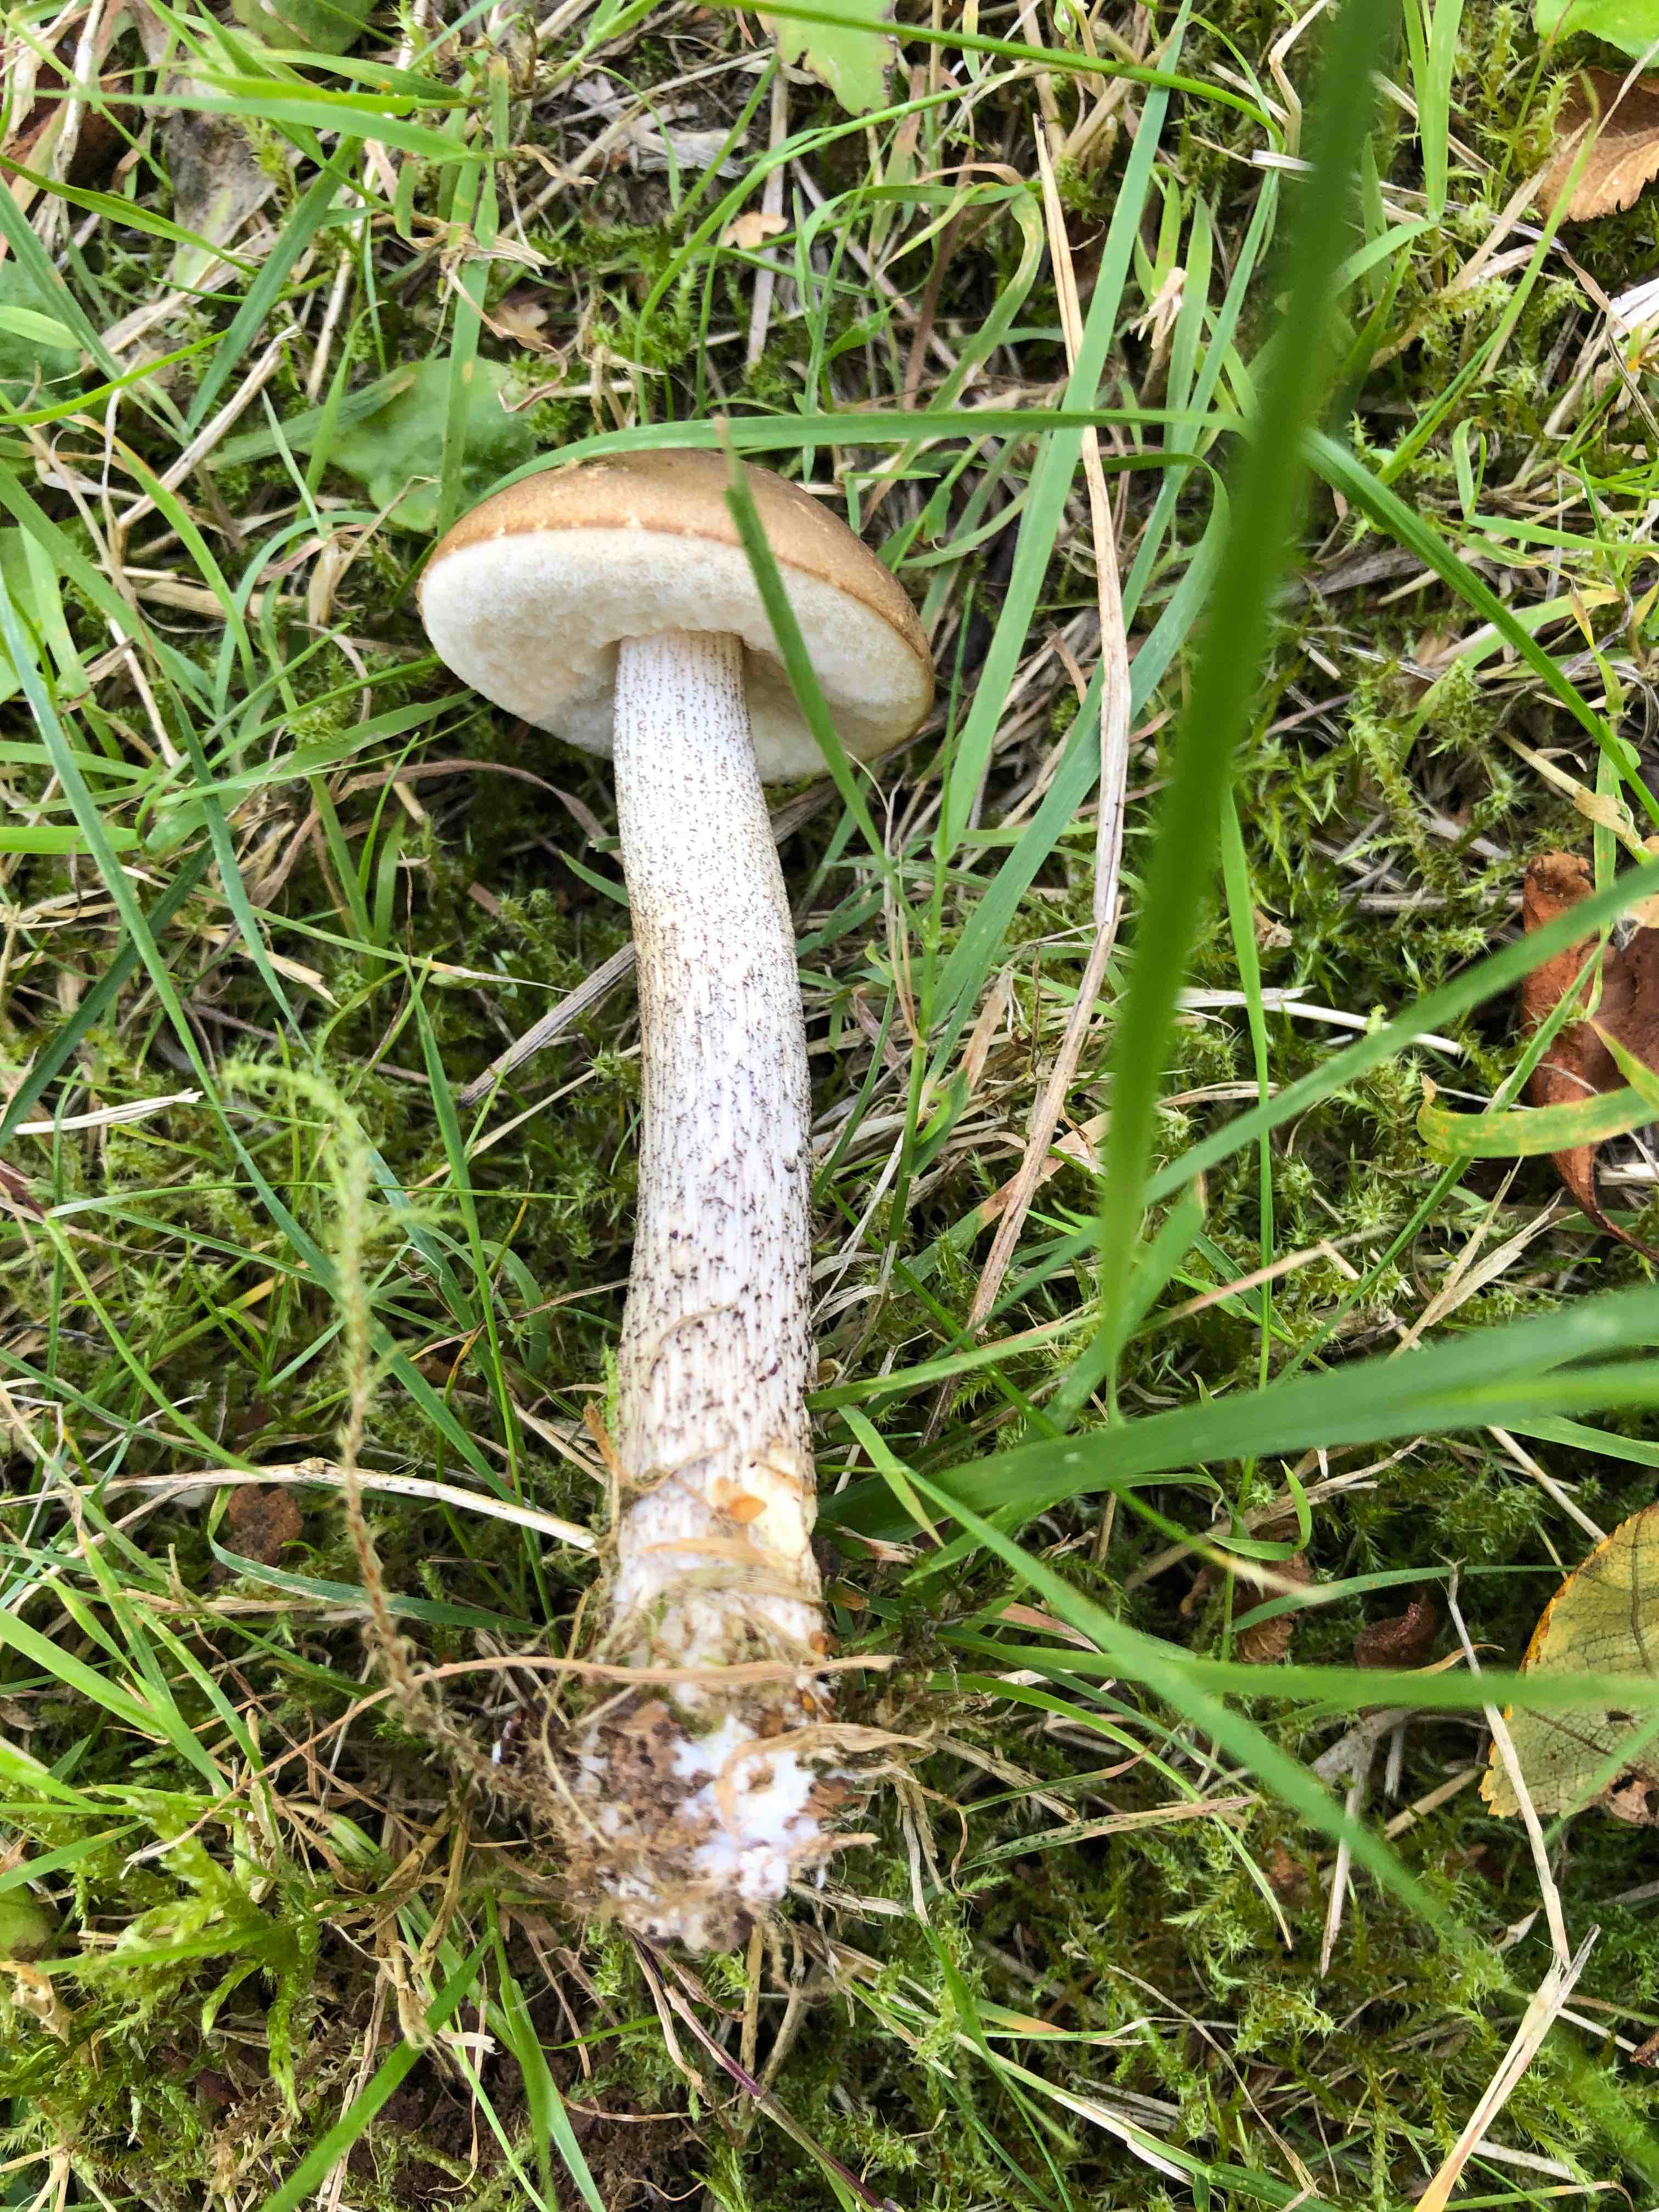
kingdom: Fungi
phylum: Basidiomycota
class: Agaricomycetes
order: Boletales
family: Boletaceae
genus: Leccinum
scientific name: Leccinum
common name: skælrørhat
